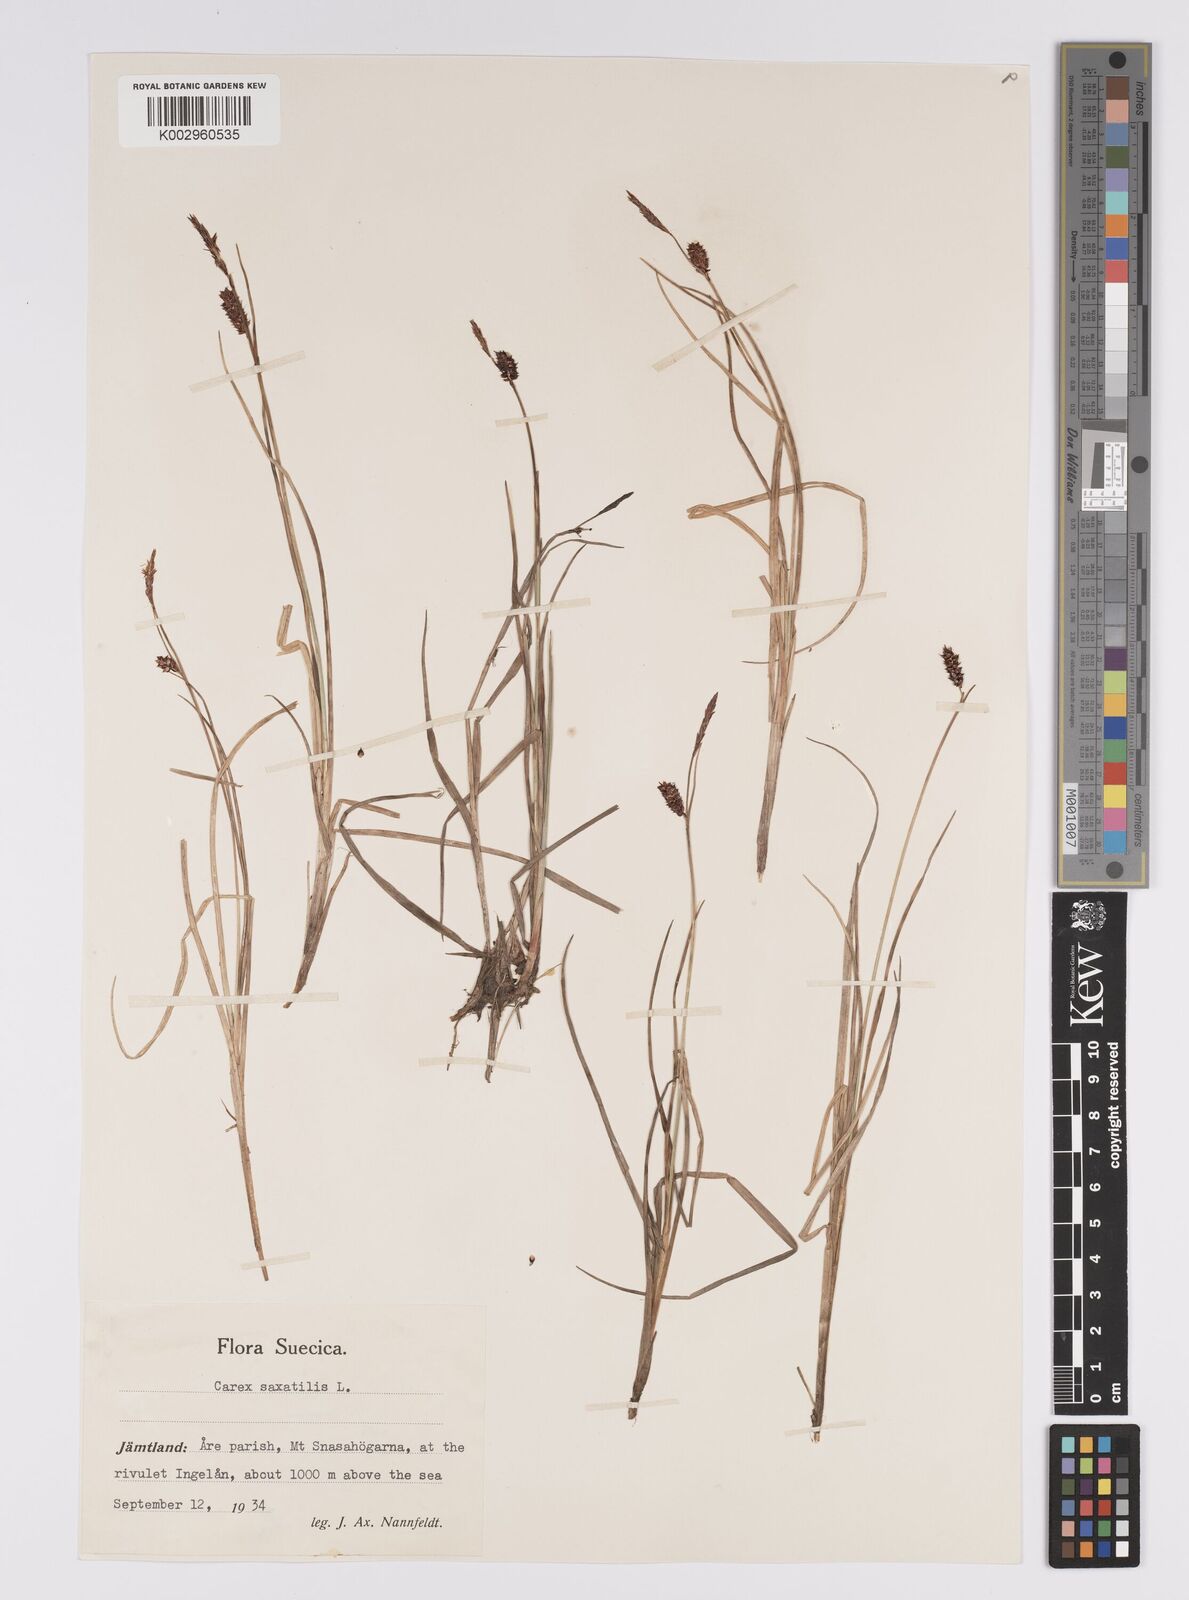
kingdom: Plantae
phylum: Tracheophyta
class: Liliopsida
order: Poales
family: Cyperaceae
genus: Carex
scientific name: Carex saxatilis
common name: Russet sedge
